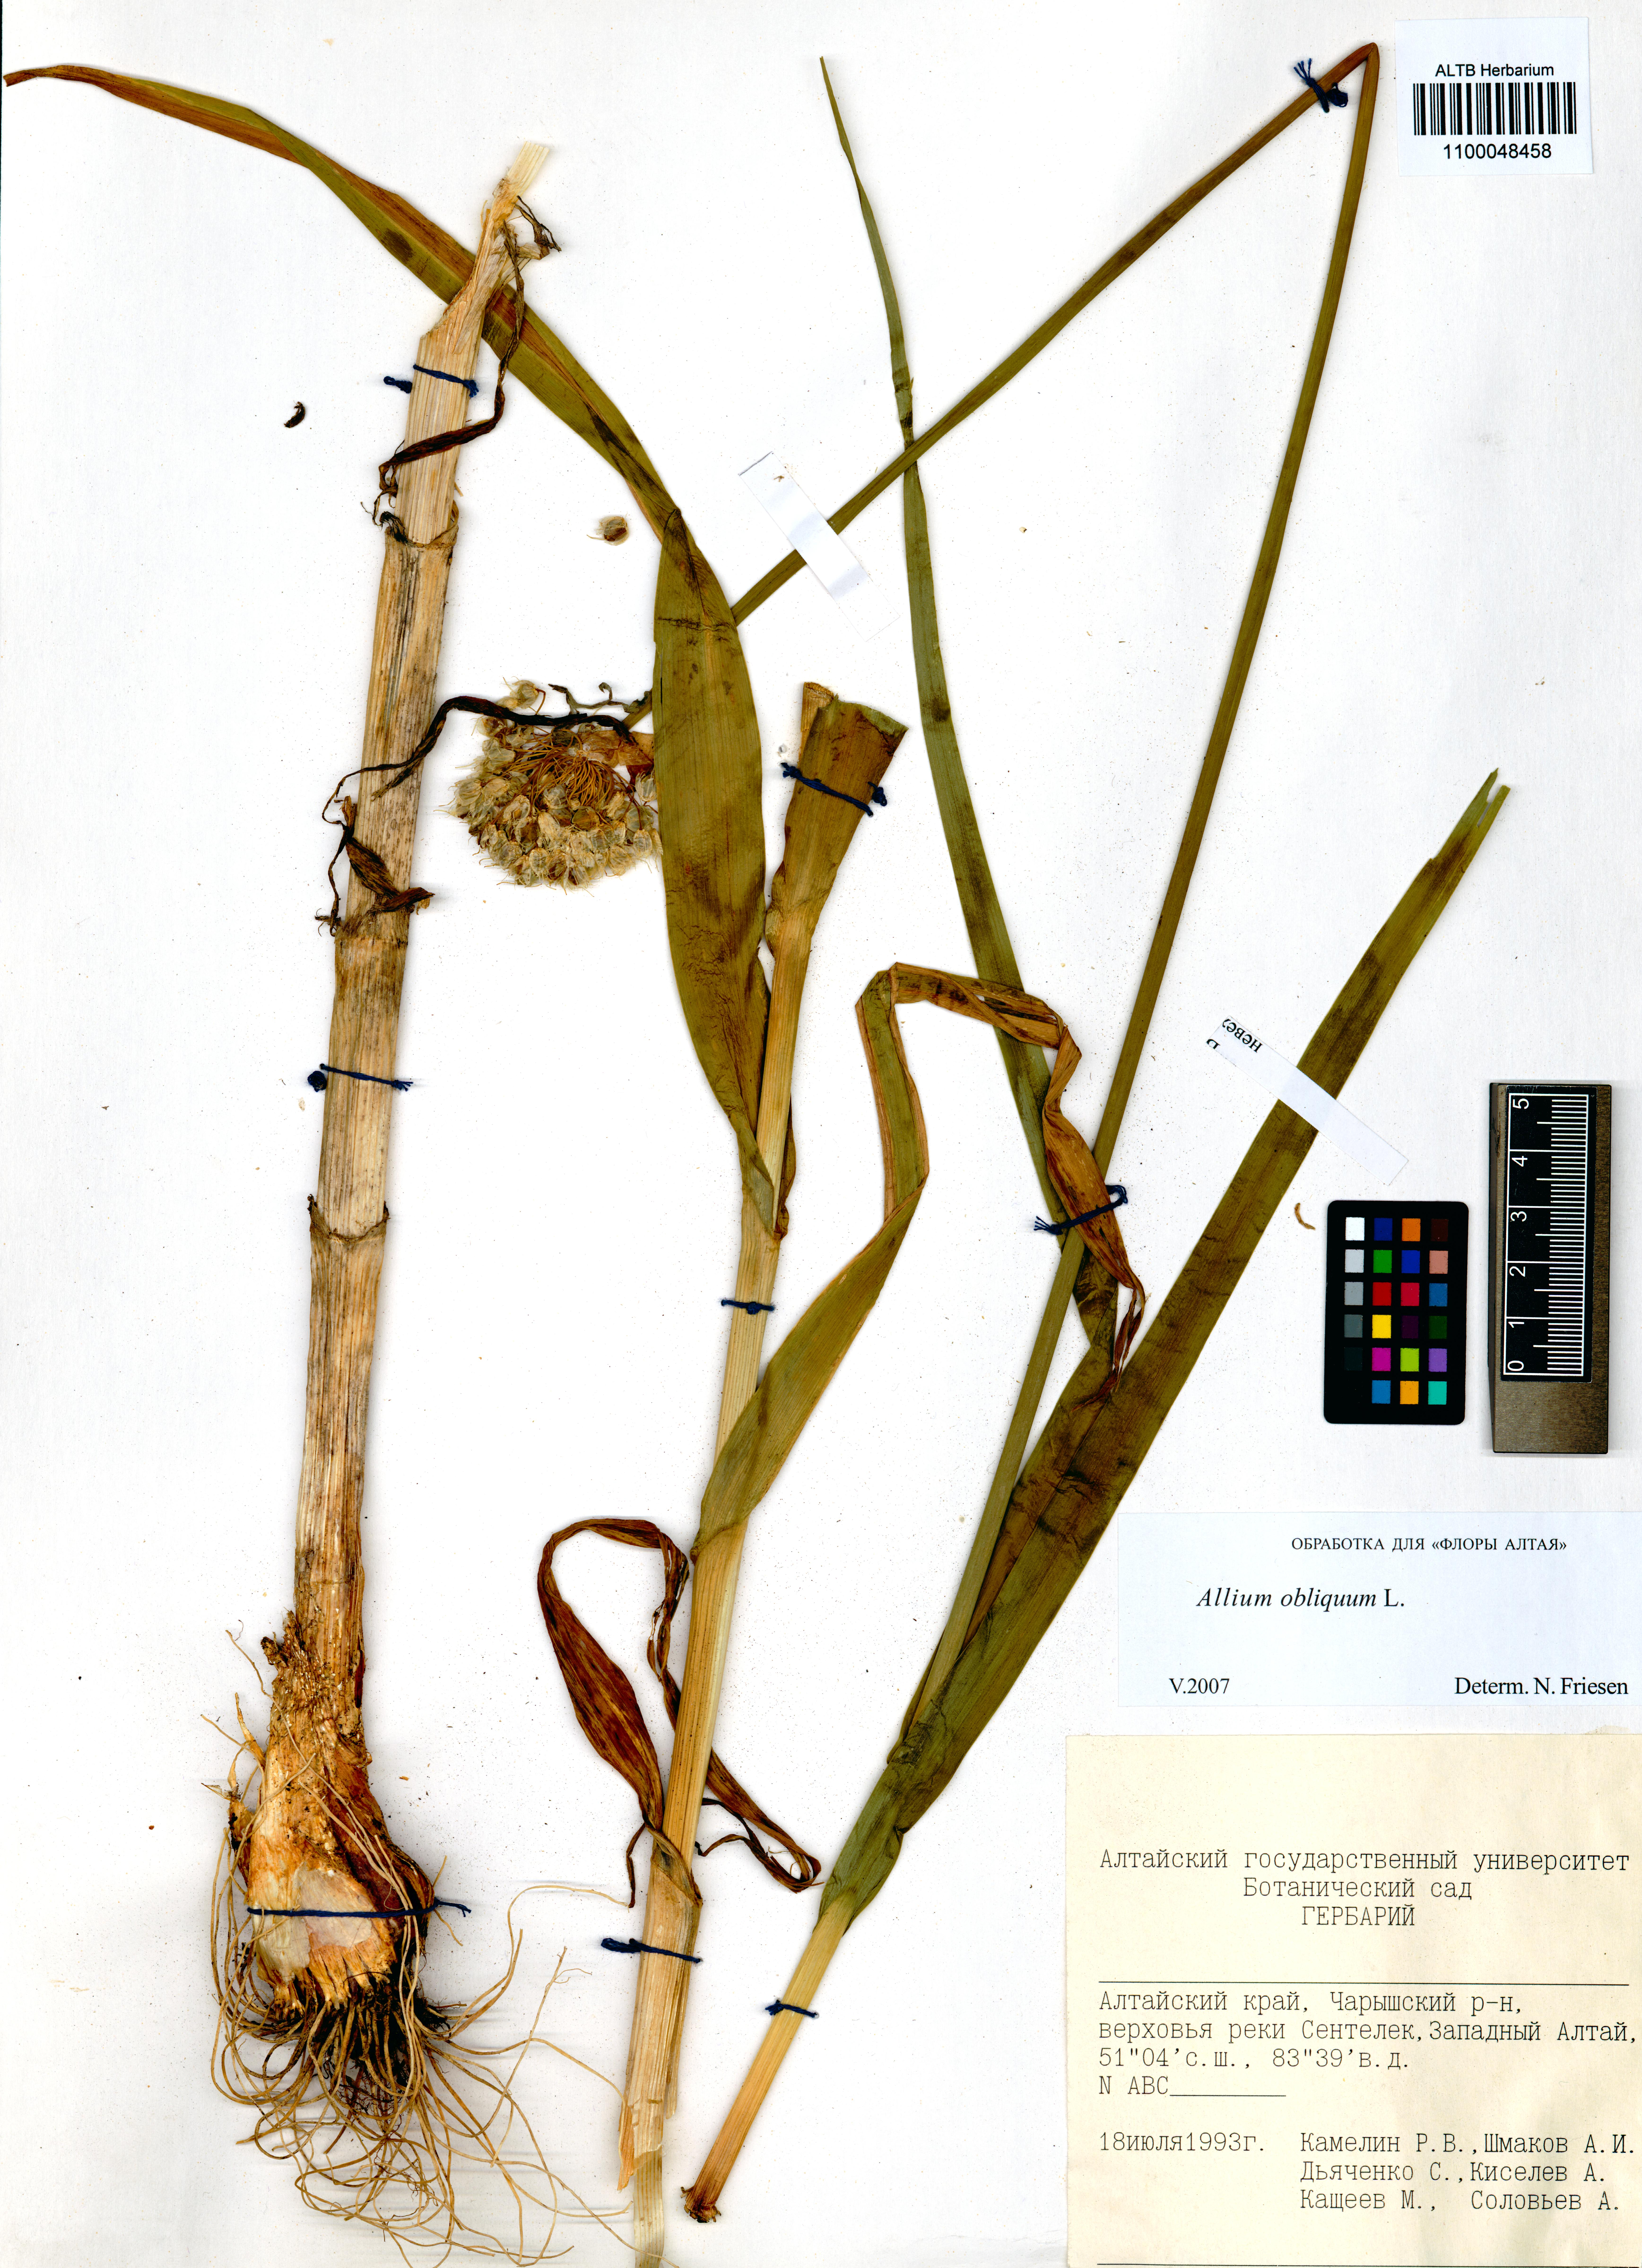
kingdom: Plantae
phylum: Tracheophyta
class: Liliopsida
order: Asparagales
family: Amaryllidaceae
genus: Allium
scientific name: Allium obliquum
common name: Oblique onion
